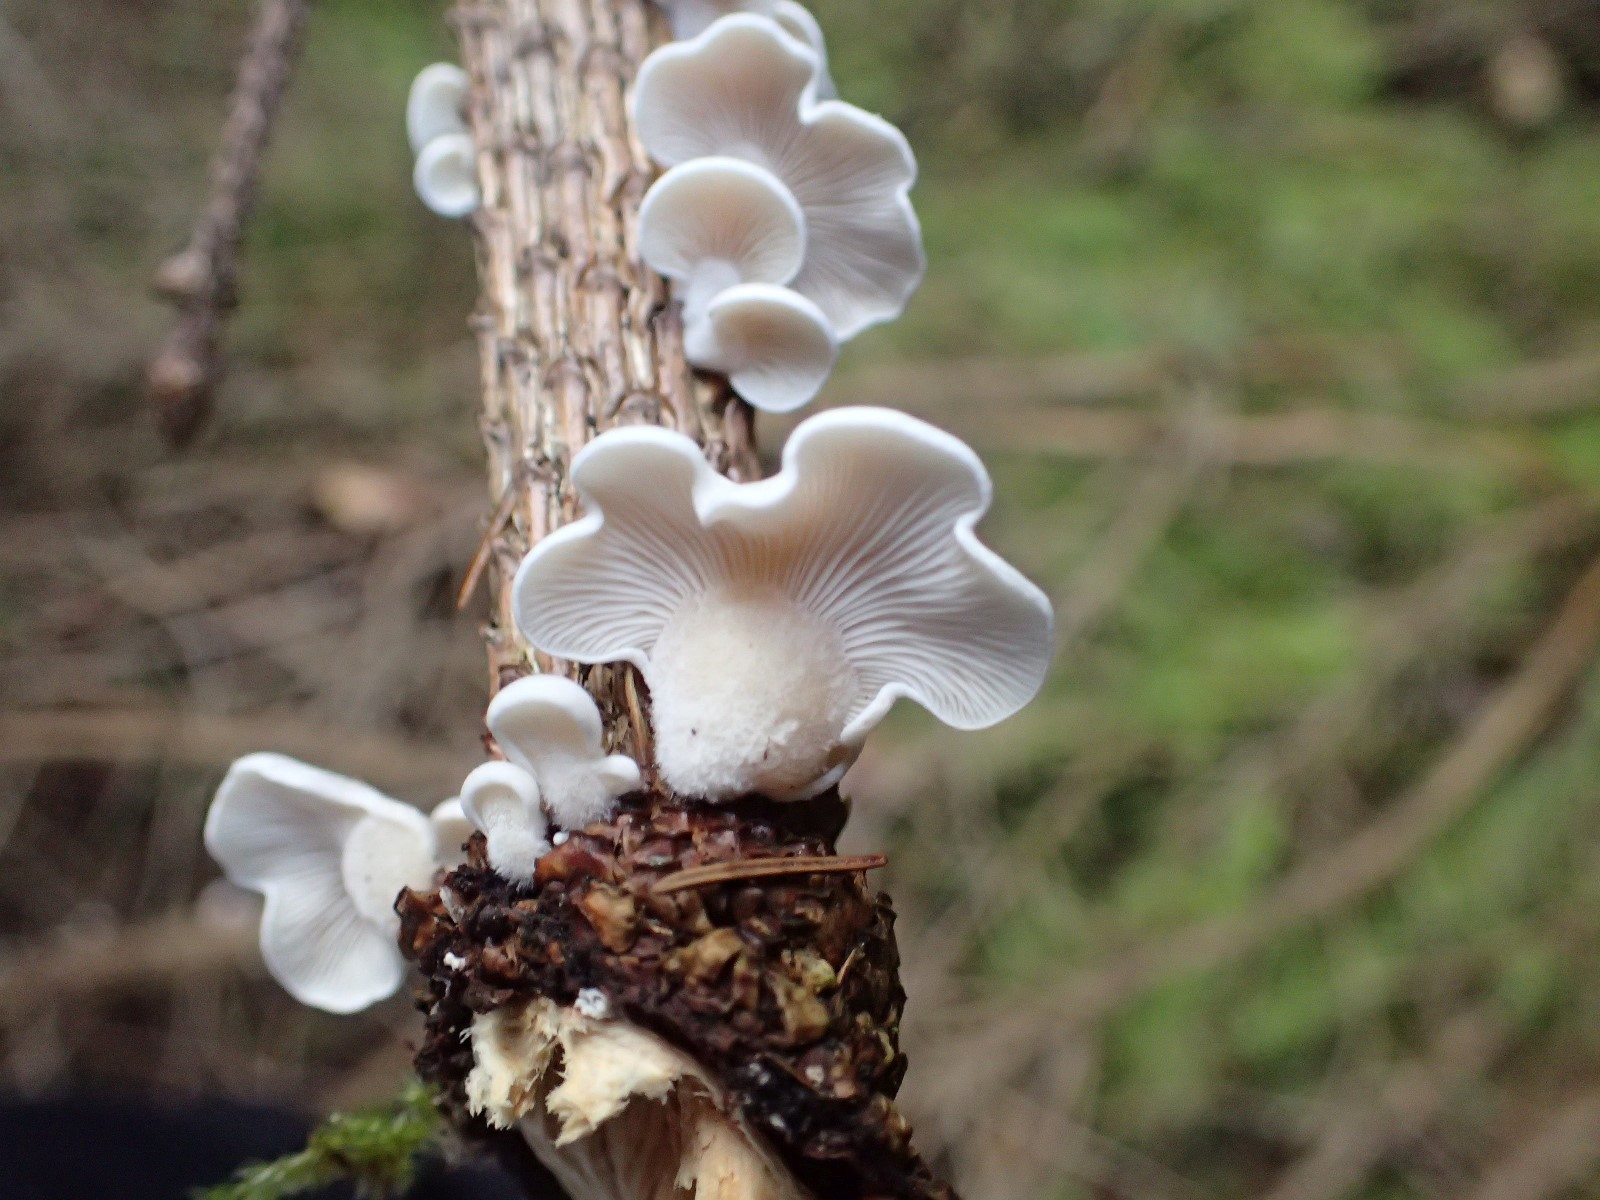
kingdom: Fungi
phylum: Basidiomycota
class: Agaricomycetes
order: Agaricales
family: Mycenaceae
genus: Panellus
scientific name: Panellus mitis
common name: mild epaulethat
